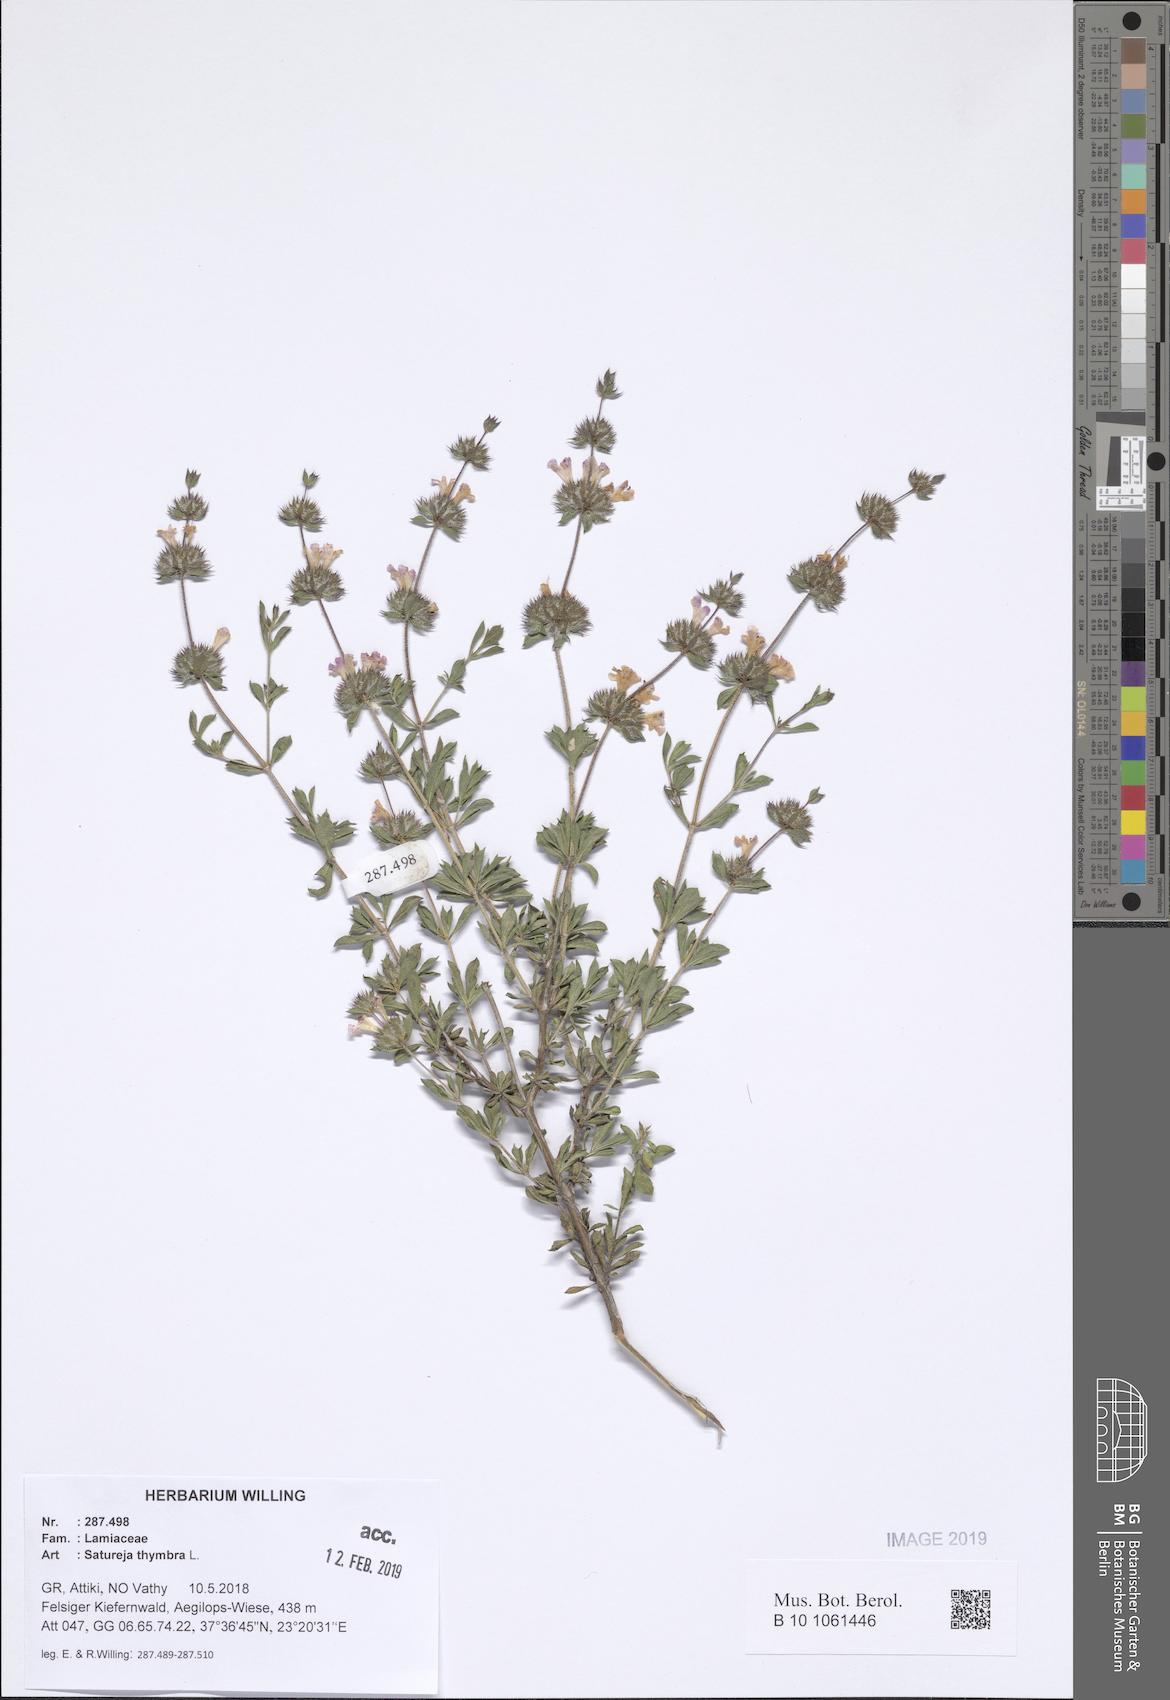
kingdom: Plantae
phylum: Tracheophyta
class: Magnoliopsida
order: Lamiales
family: Lamiaceae
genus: Satureja
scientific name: Satureja thymbra
